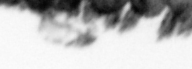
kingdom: Animalia
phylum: Chordata
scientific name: Chordata
